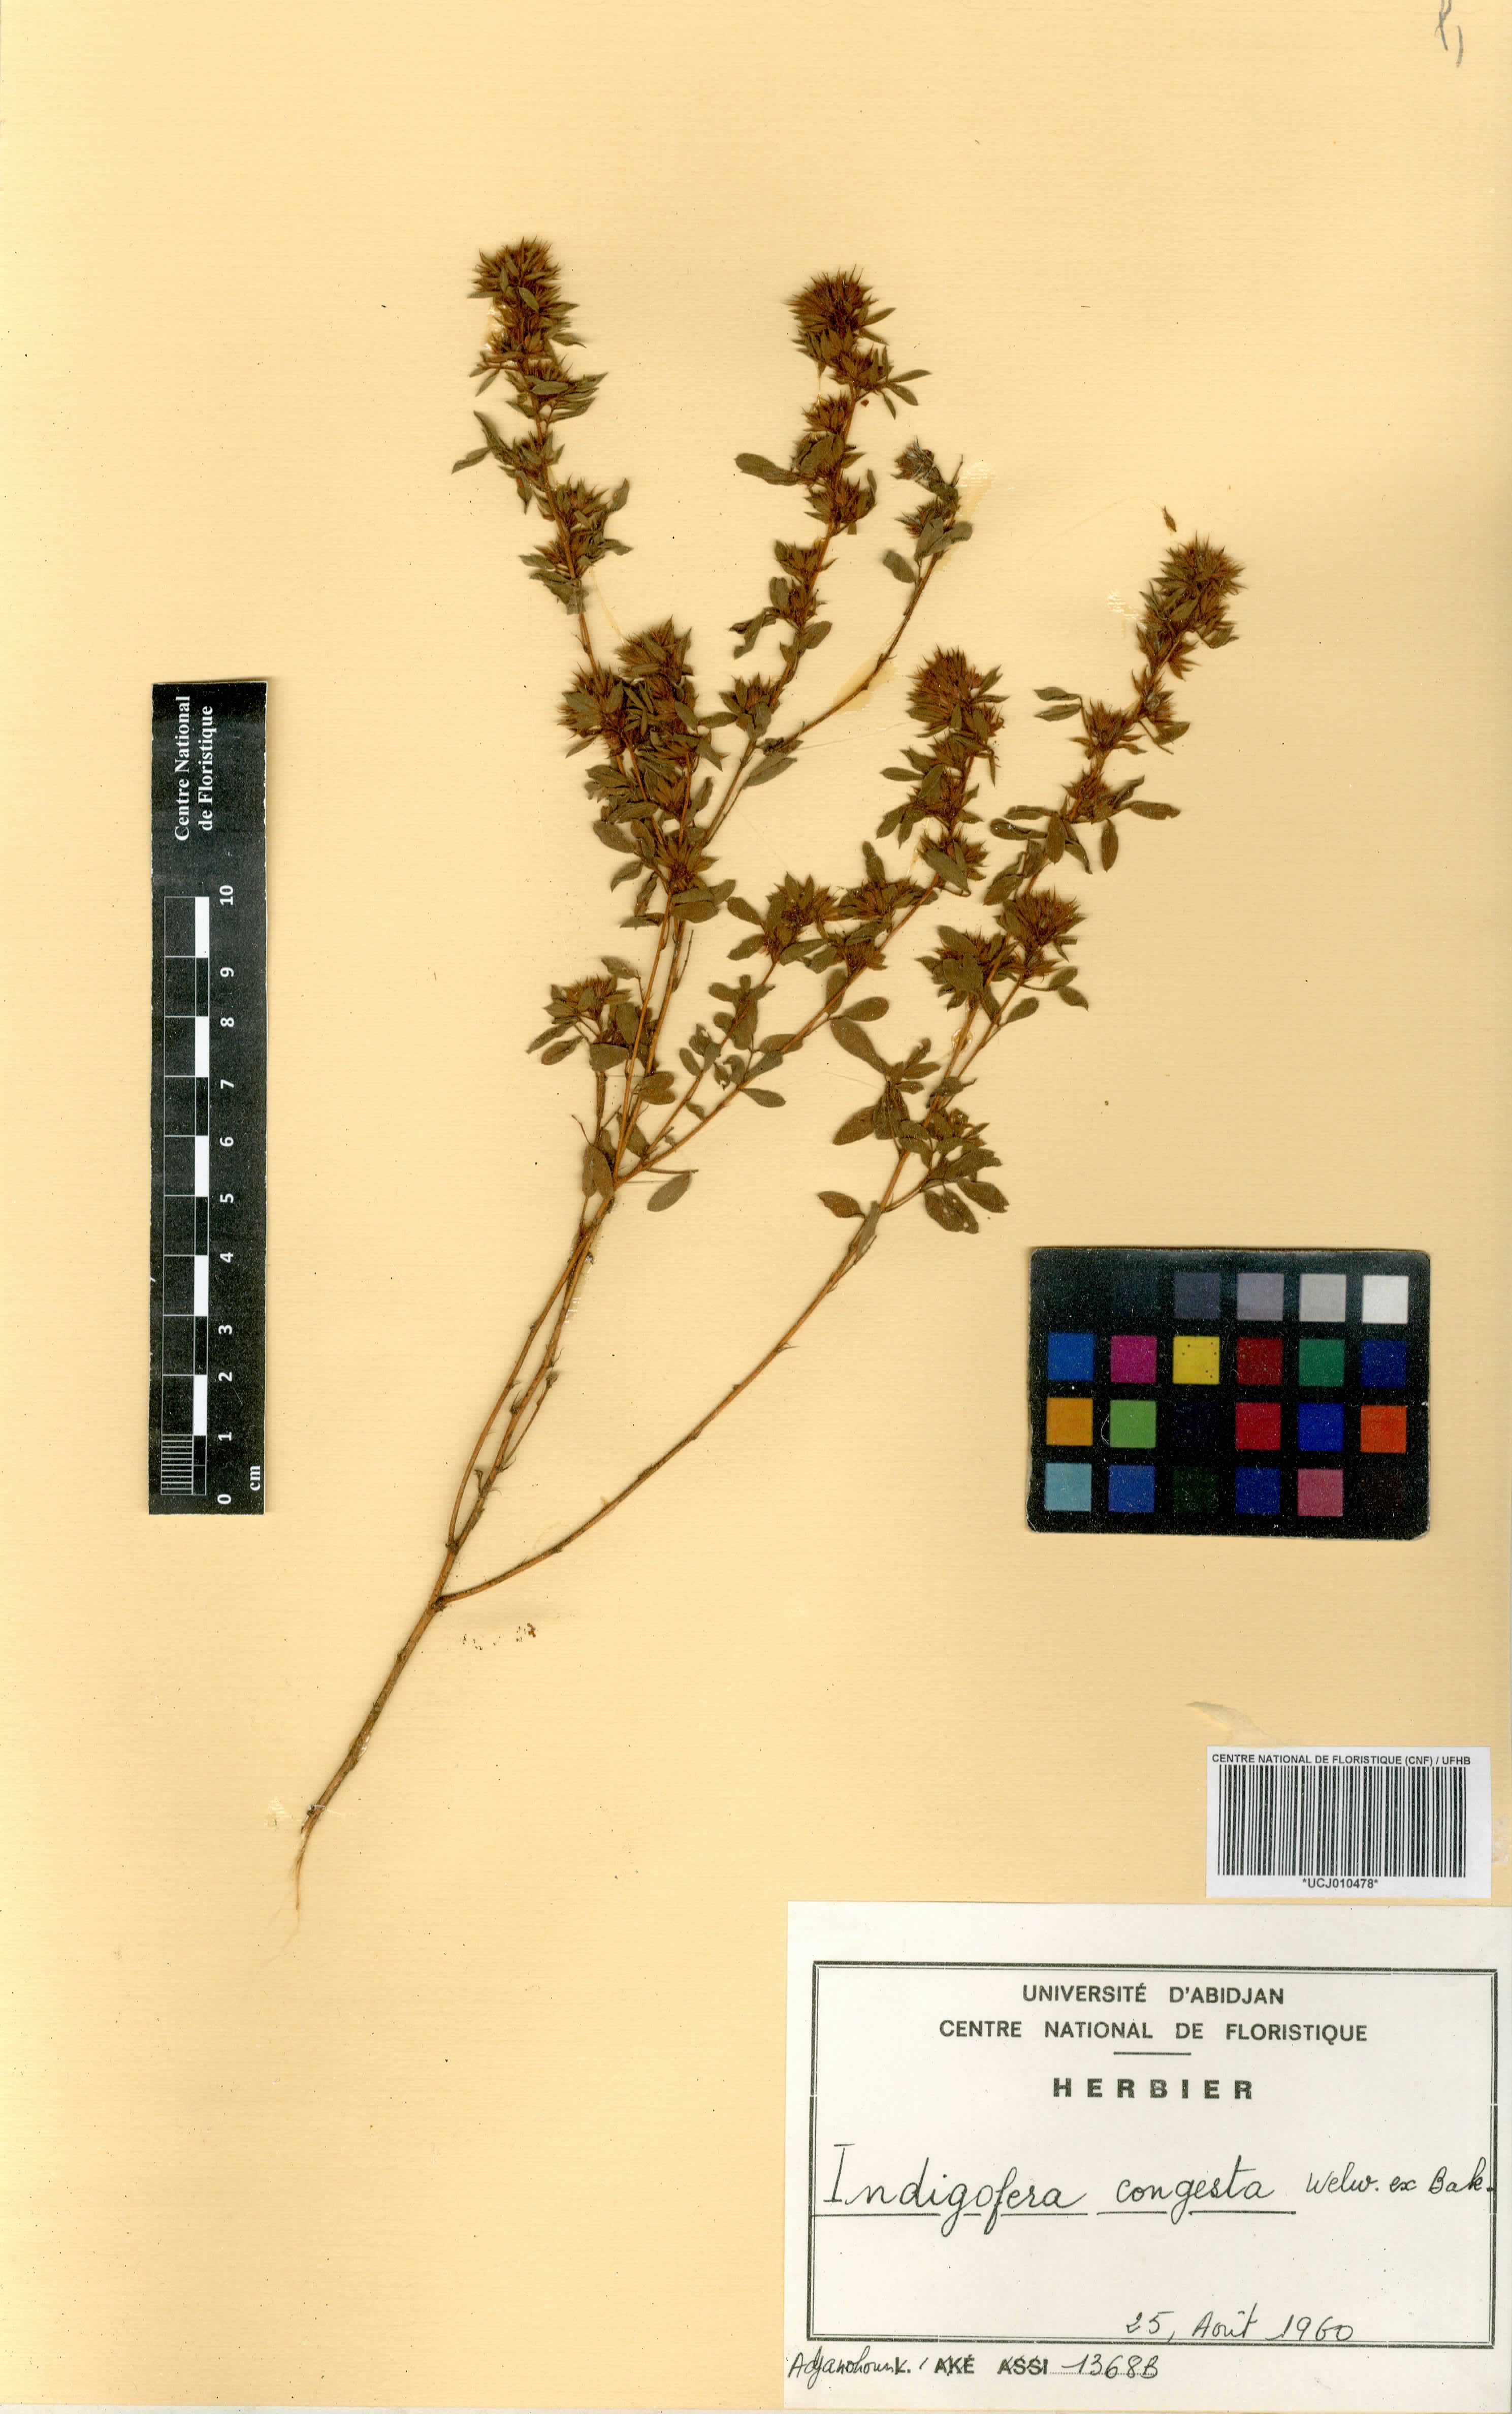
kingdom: Plantae
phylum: Tracheophyta
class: Magnoliopsida
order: Fabales
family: Fabaceae
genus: Indigofera
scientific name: Indigofera congesta
